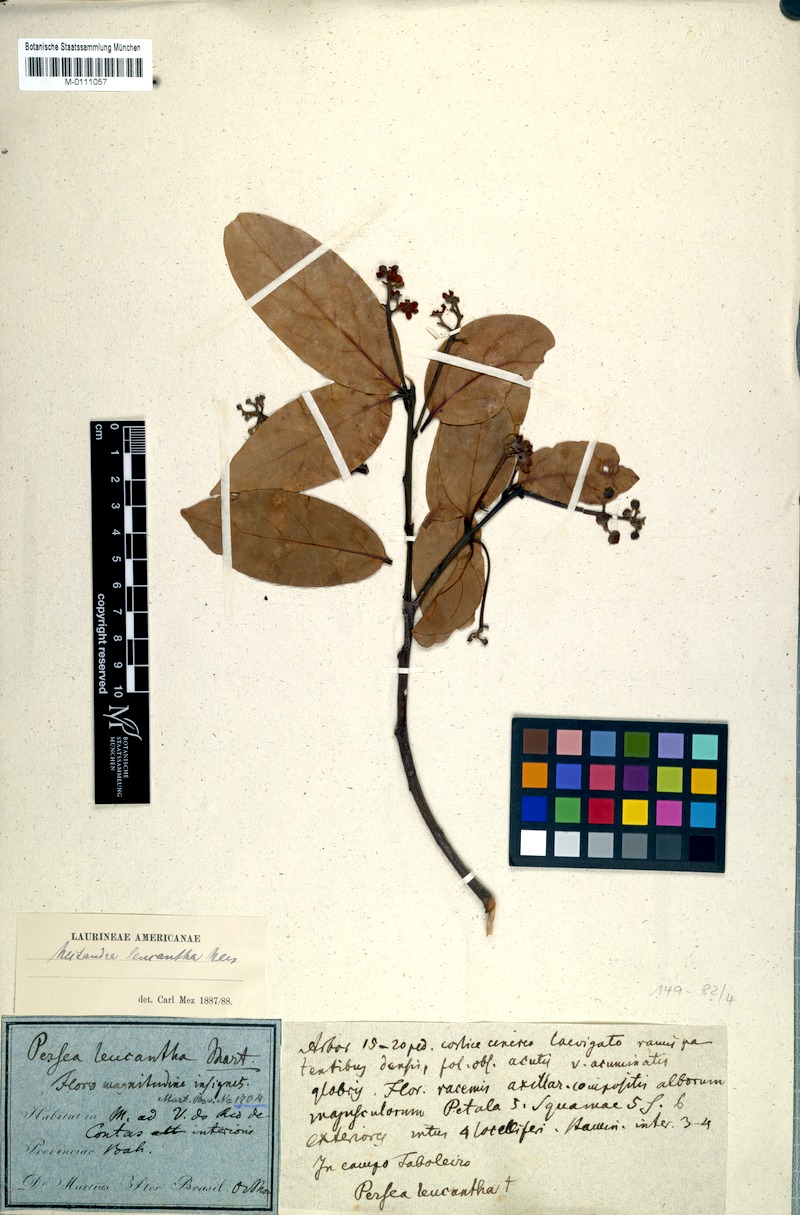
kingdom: Plantae
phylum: Tracheophyta
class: Magnoliopsida
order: Laurales
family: Lauraceae
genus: Nectandra
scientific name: Nectandra leucantha
